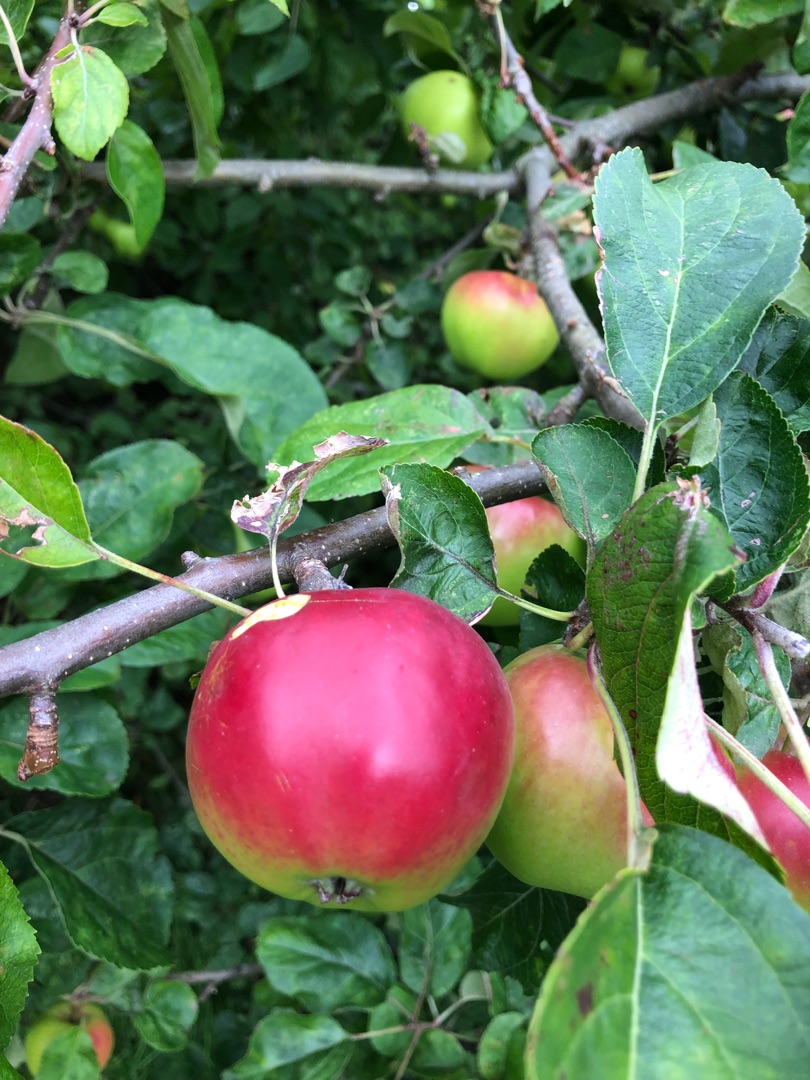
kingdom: Plantae
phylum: Tracheophyta
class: Magnoliopsida
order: Rosales
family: Rosaceae
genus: Malus
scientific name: Malus domestica
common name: Sød-æble
